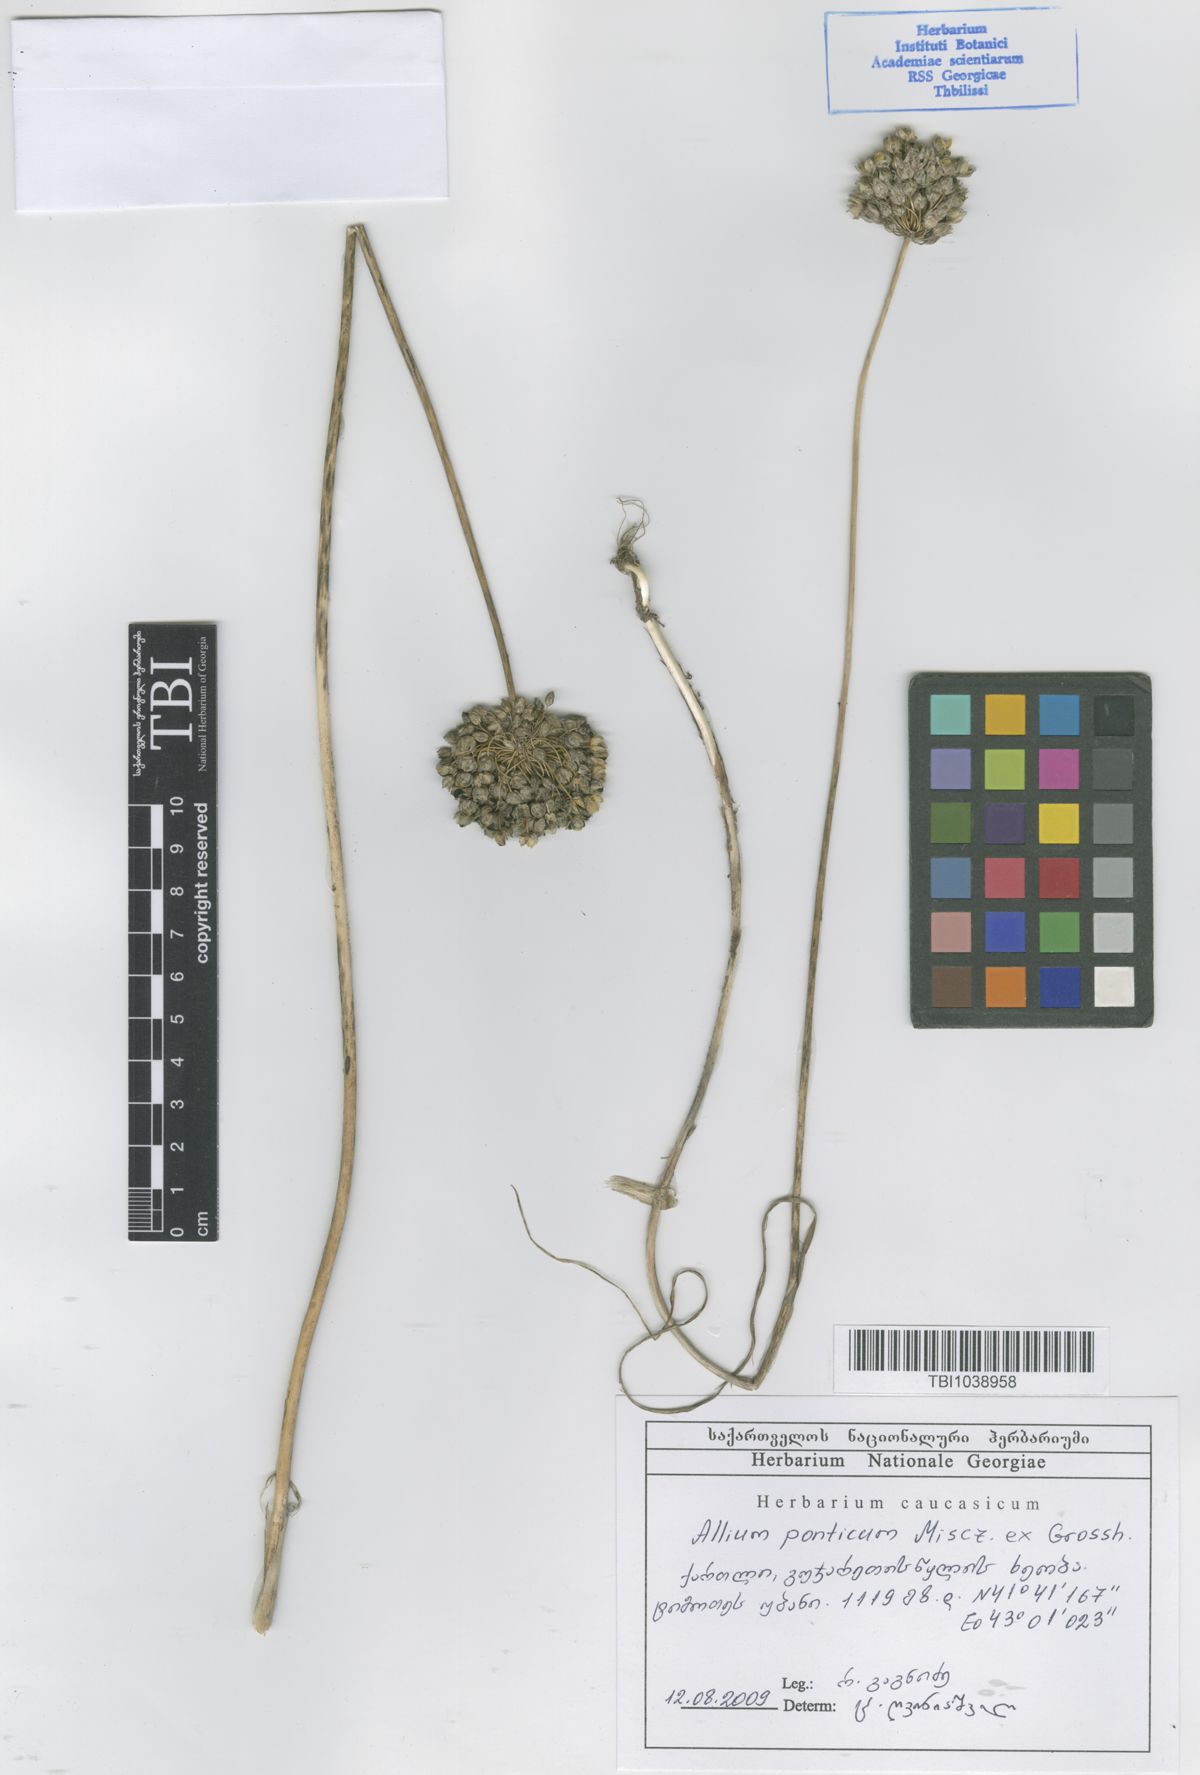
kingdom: Plantae
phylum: Tracheophyta
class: Liliopsida
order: Asparagales
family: Amaryllidaceae
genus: Allium
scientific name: Allium ponticum
